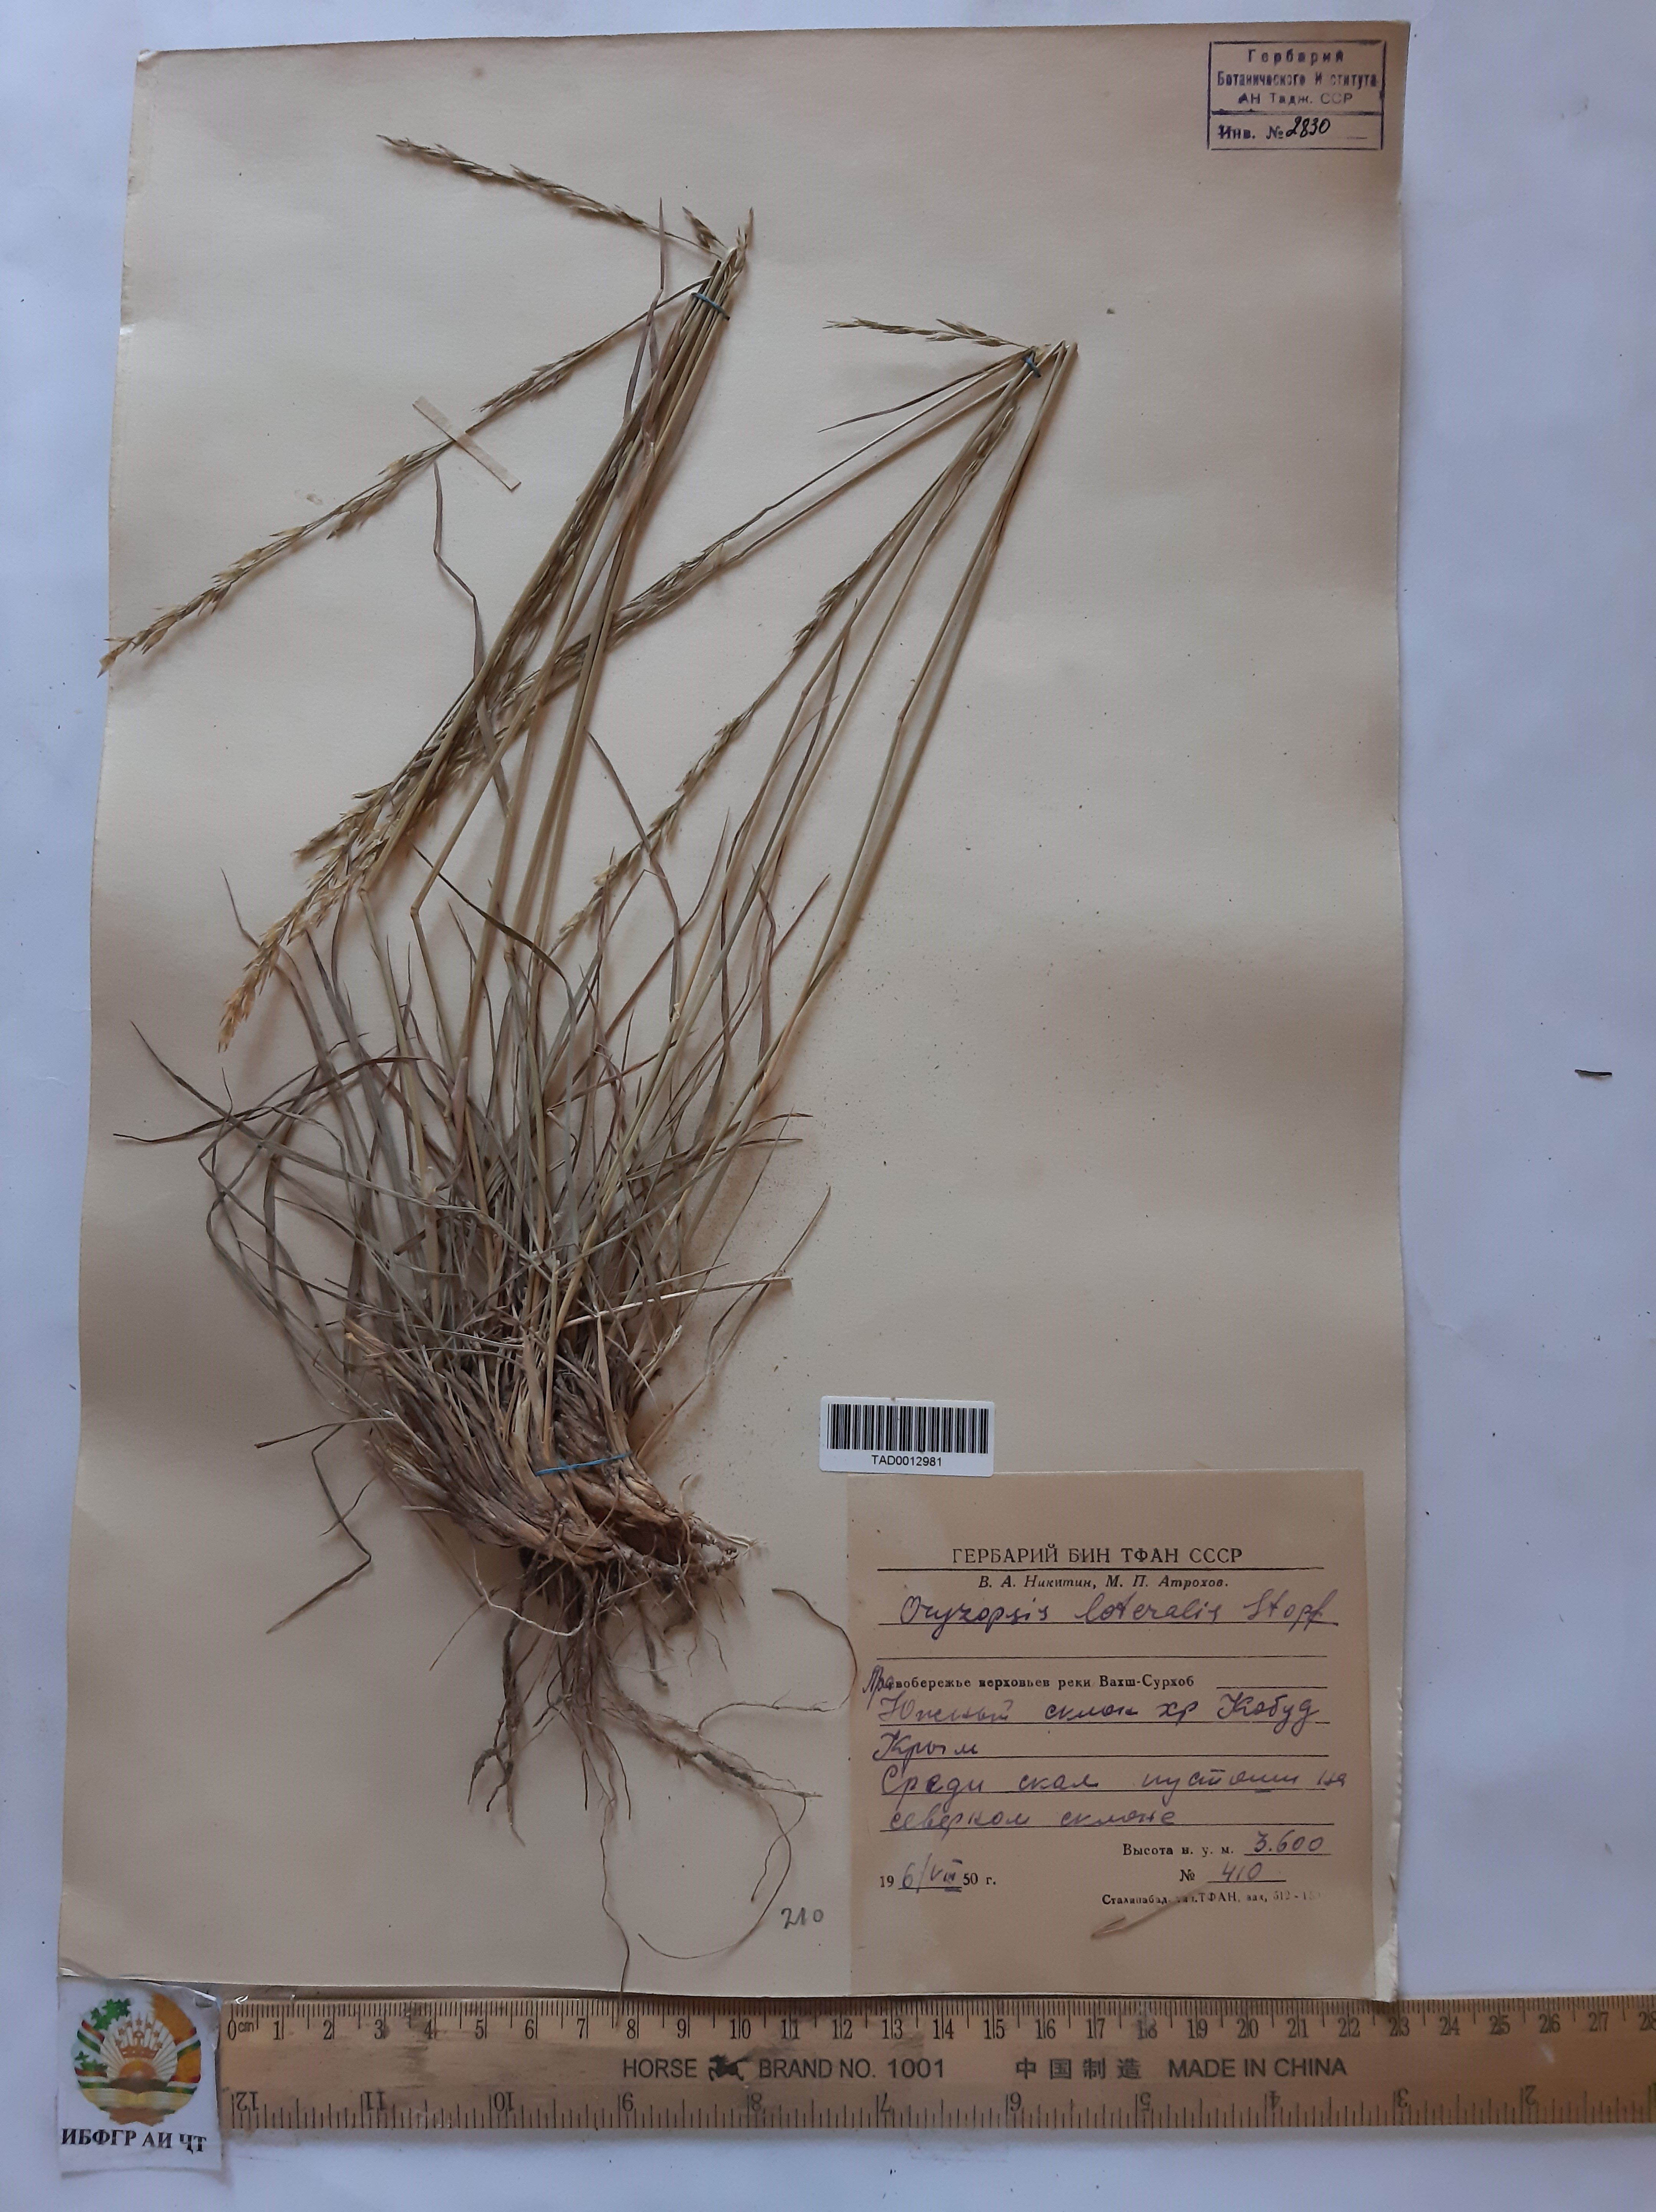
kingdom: Plantae
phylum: Tracheophyta
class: Liliopsida
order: Poales
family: Poaceae
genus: Piptatherum
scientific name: Piptatherum laterale
